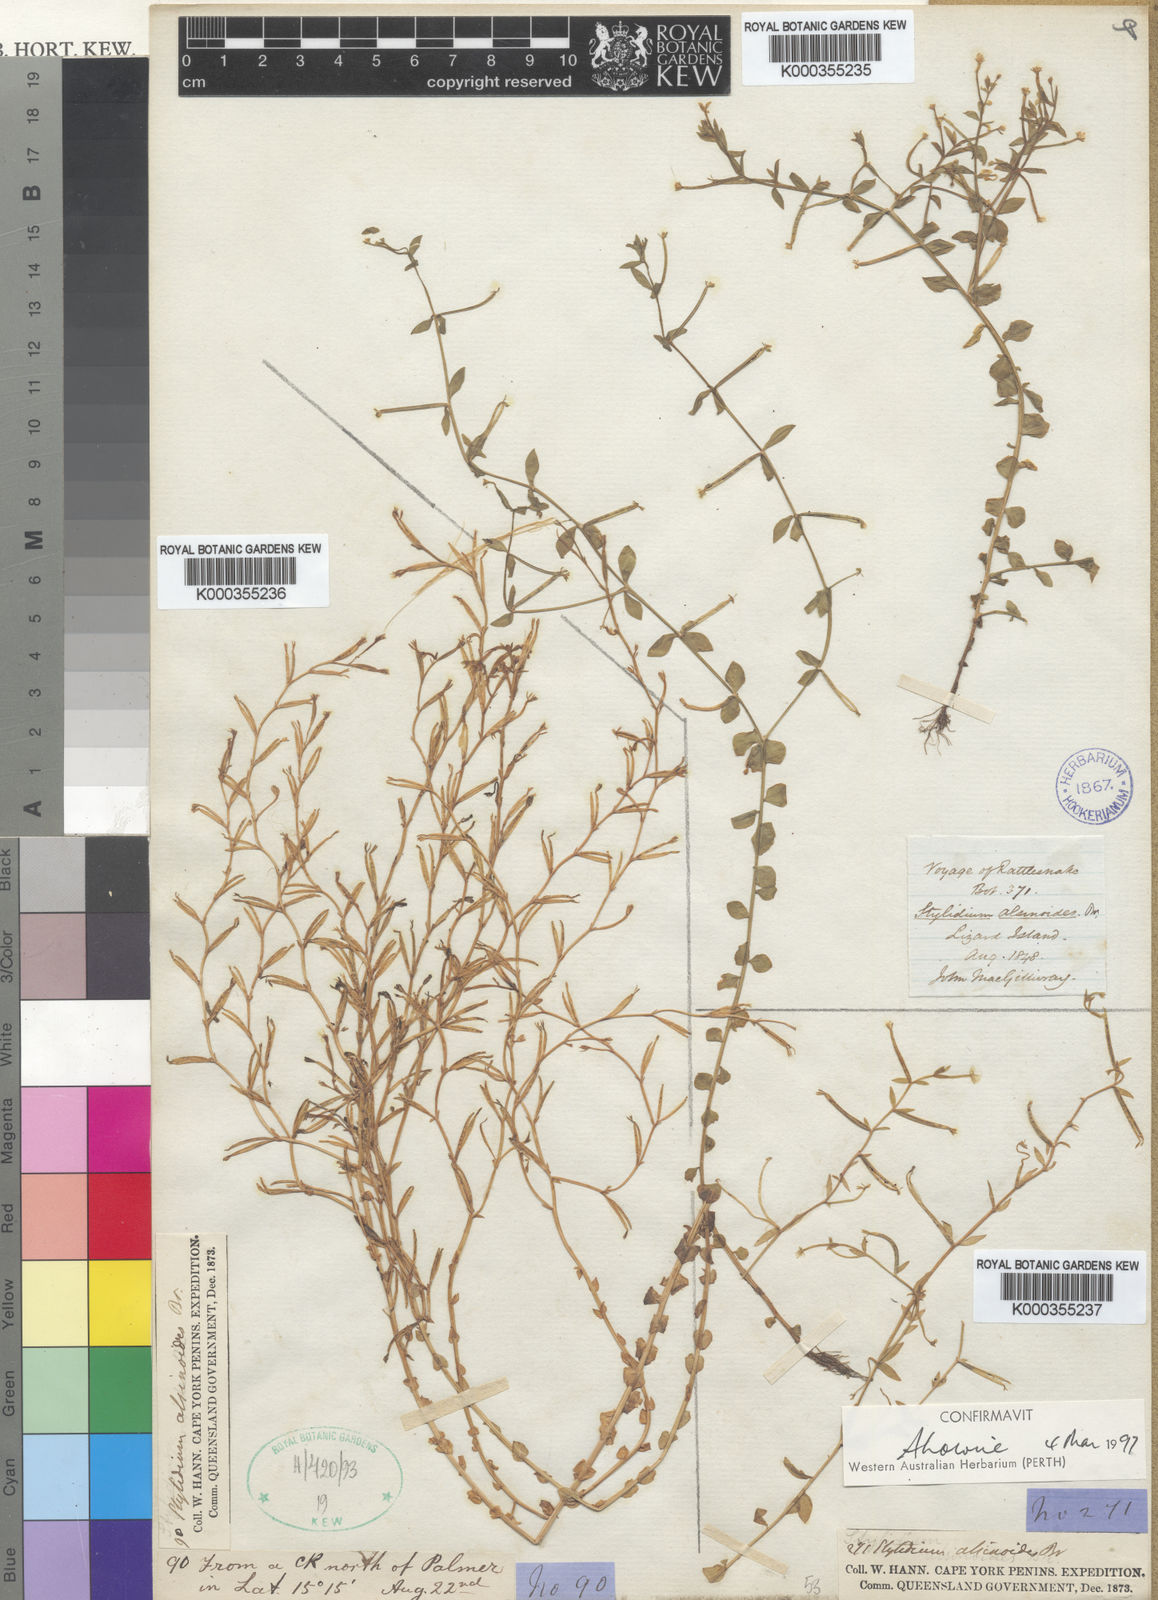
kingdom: Plantae
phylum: Tracheophyta
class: Magnoliopsida
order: Asterales
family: Stylidiaceae
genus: Stylidium
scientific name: Stylidium alsinoides
